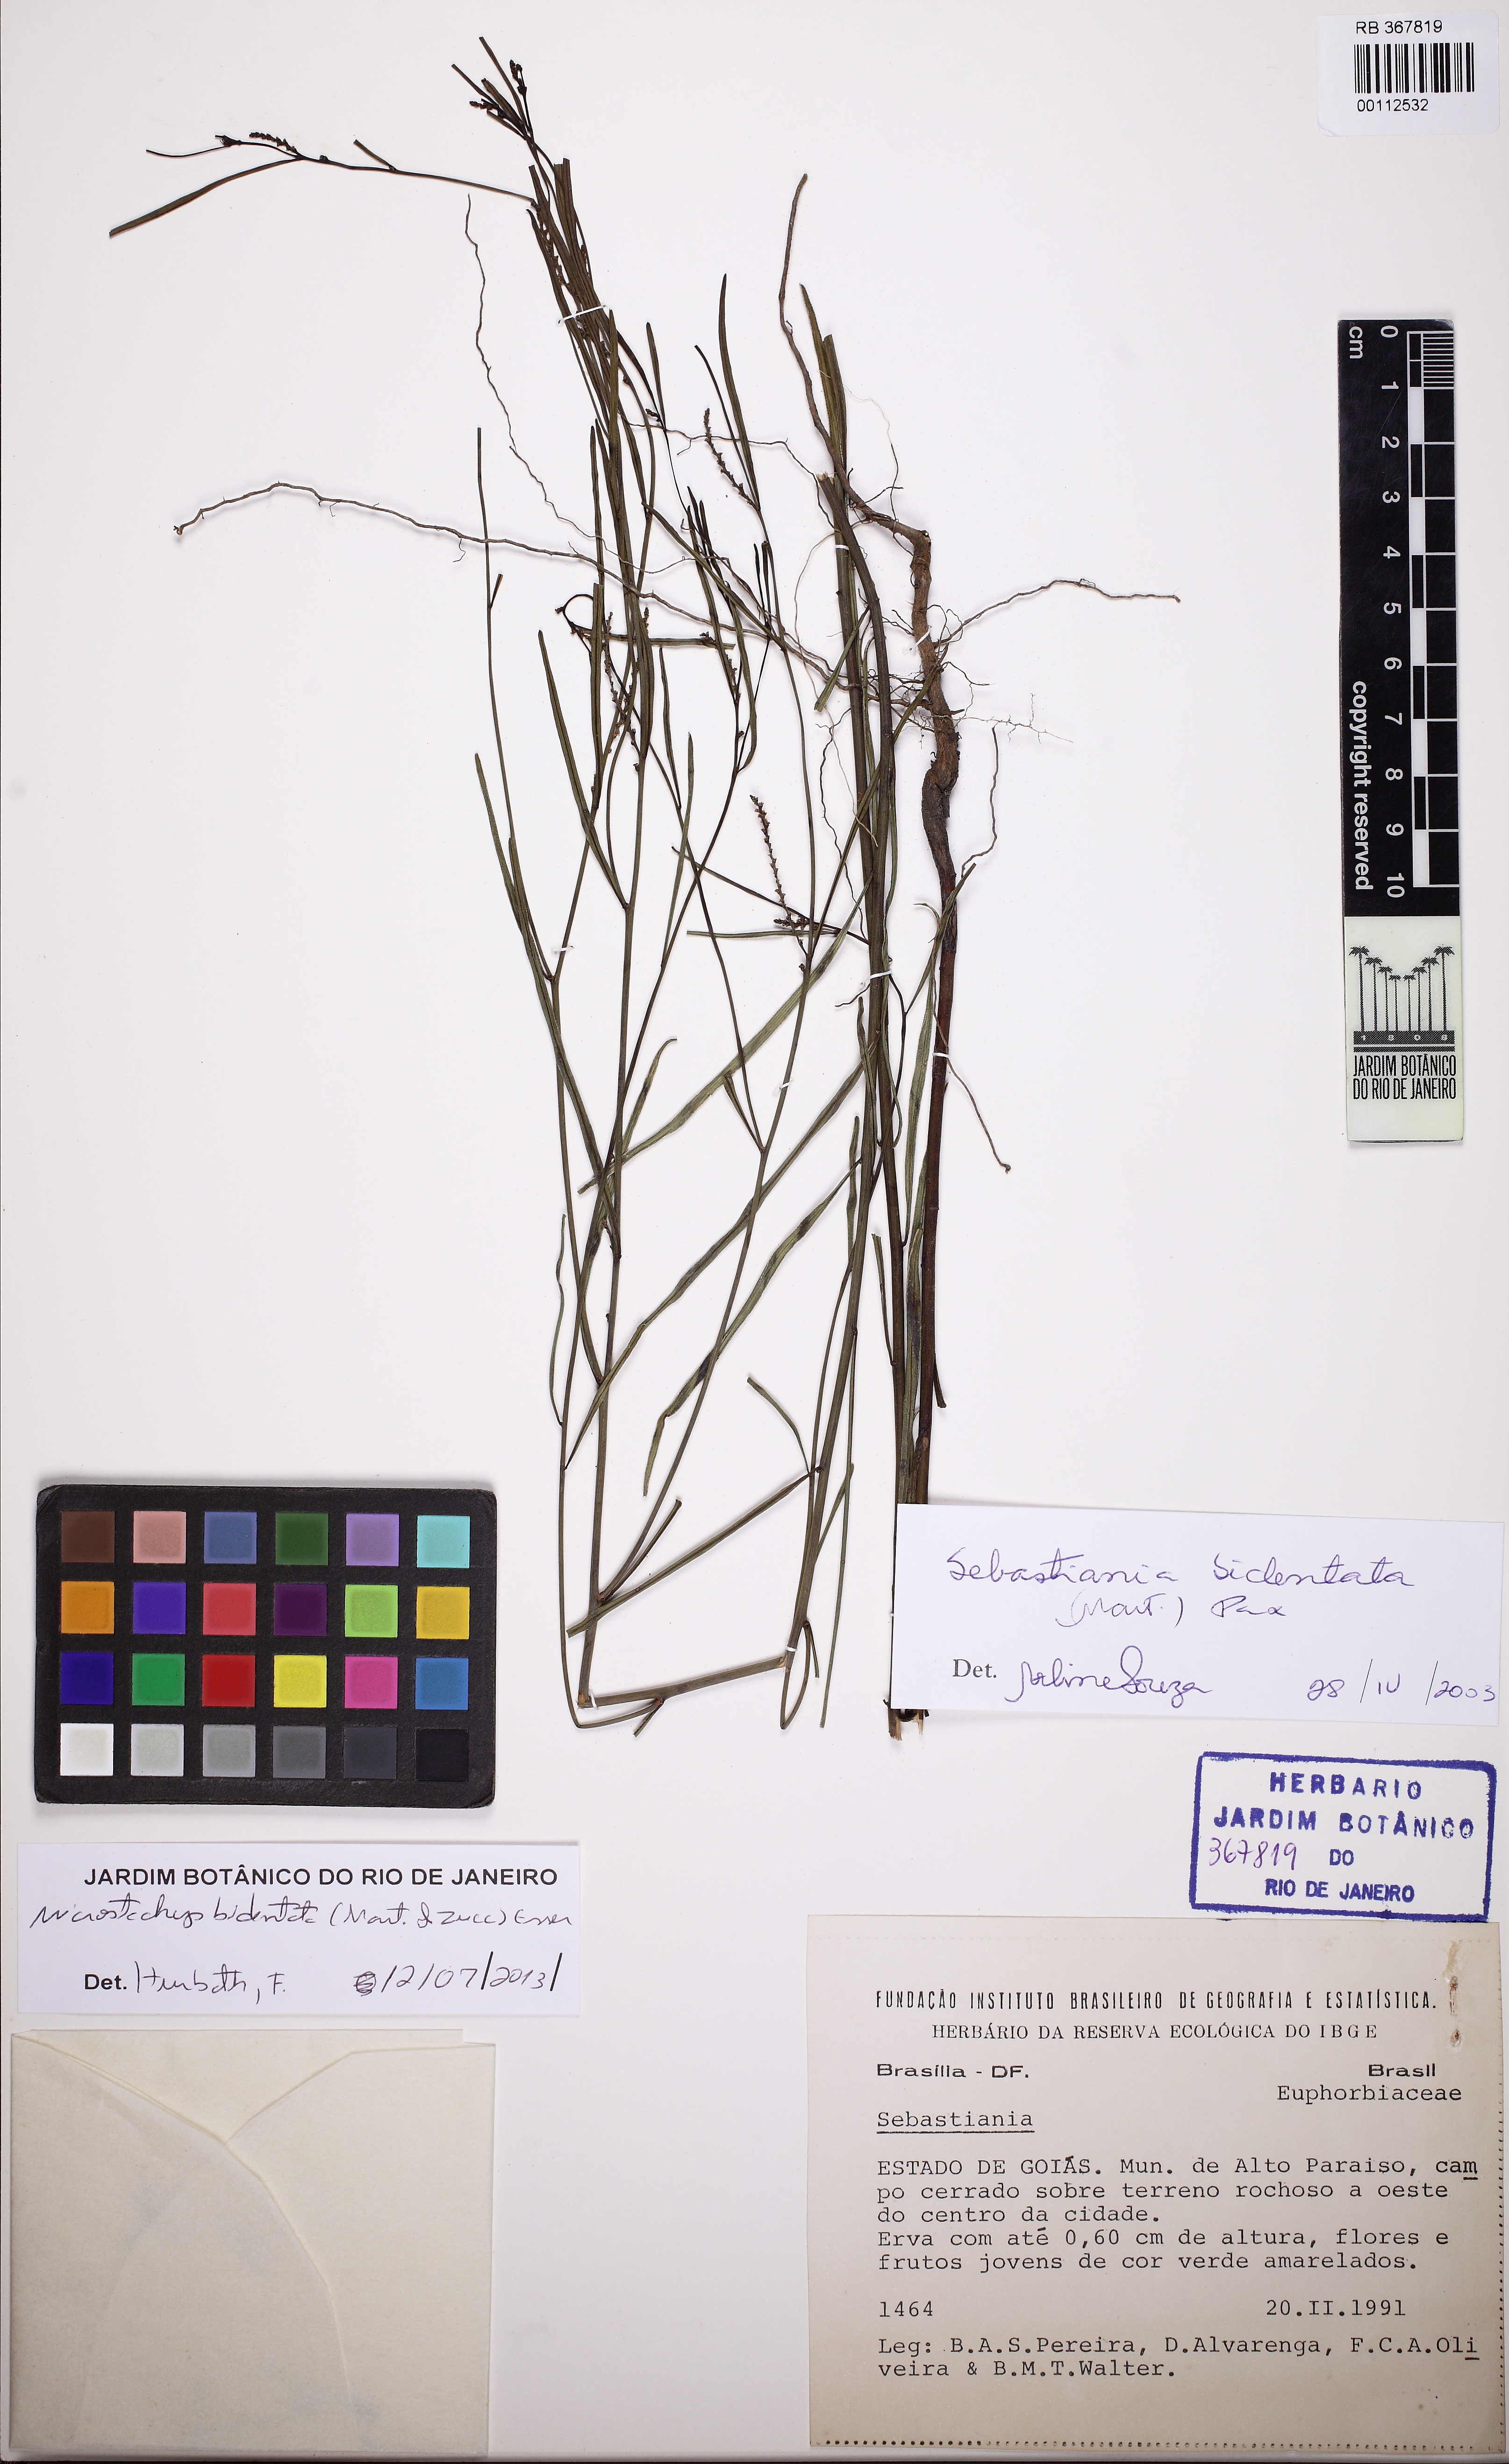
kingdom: Plantae
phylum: Tracheophyta
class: Magnoliopsida
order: Malpighiales
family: Euphorbiaceae
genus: Microstachys
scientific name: Microstachys bidentata
